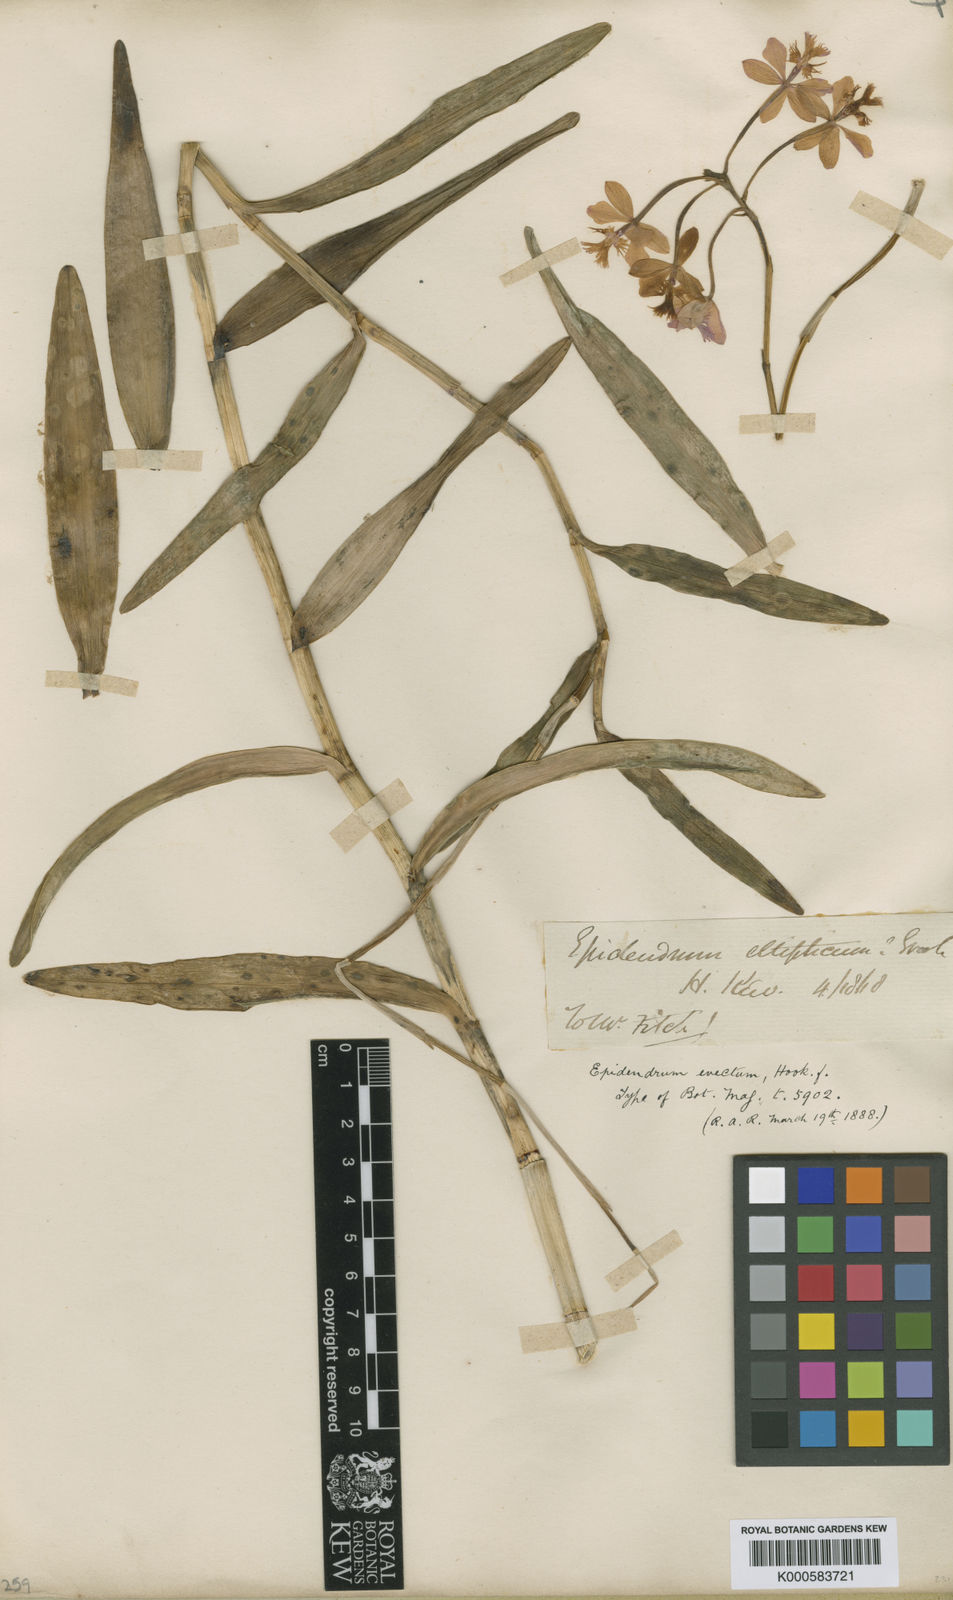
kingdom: Plantae
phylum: Tracheophyta
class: Liliopsida
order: Asparagales
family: Orchidaceae
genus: Epidendrum
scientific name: Epidendrum secundum
